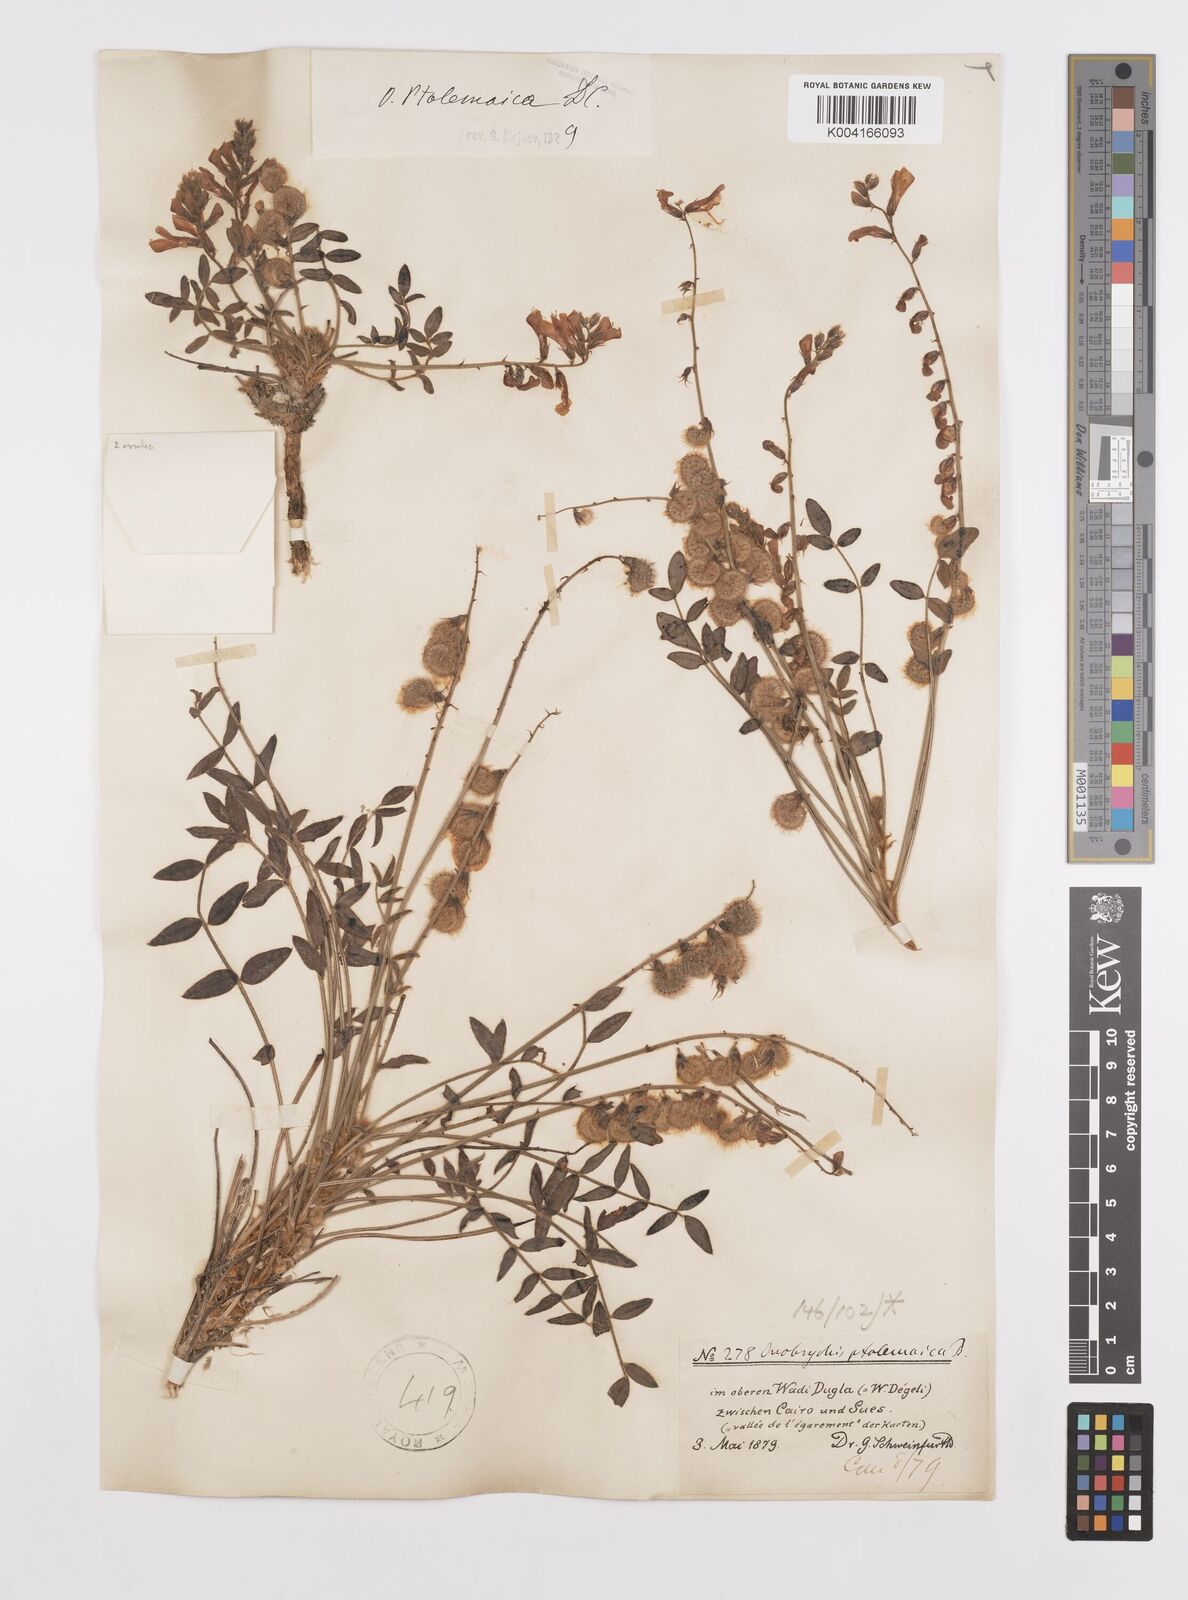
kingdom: Plantae
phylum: Tracheophyta
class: Magnoliopsida
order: Fabales
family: Fabaceae
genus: Onobrychis
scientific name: Onobrychis ptolemaica
